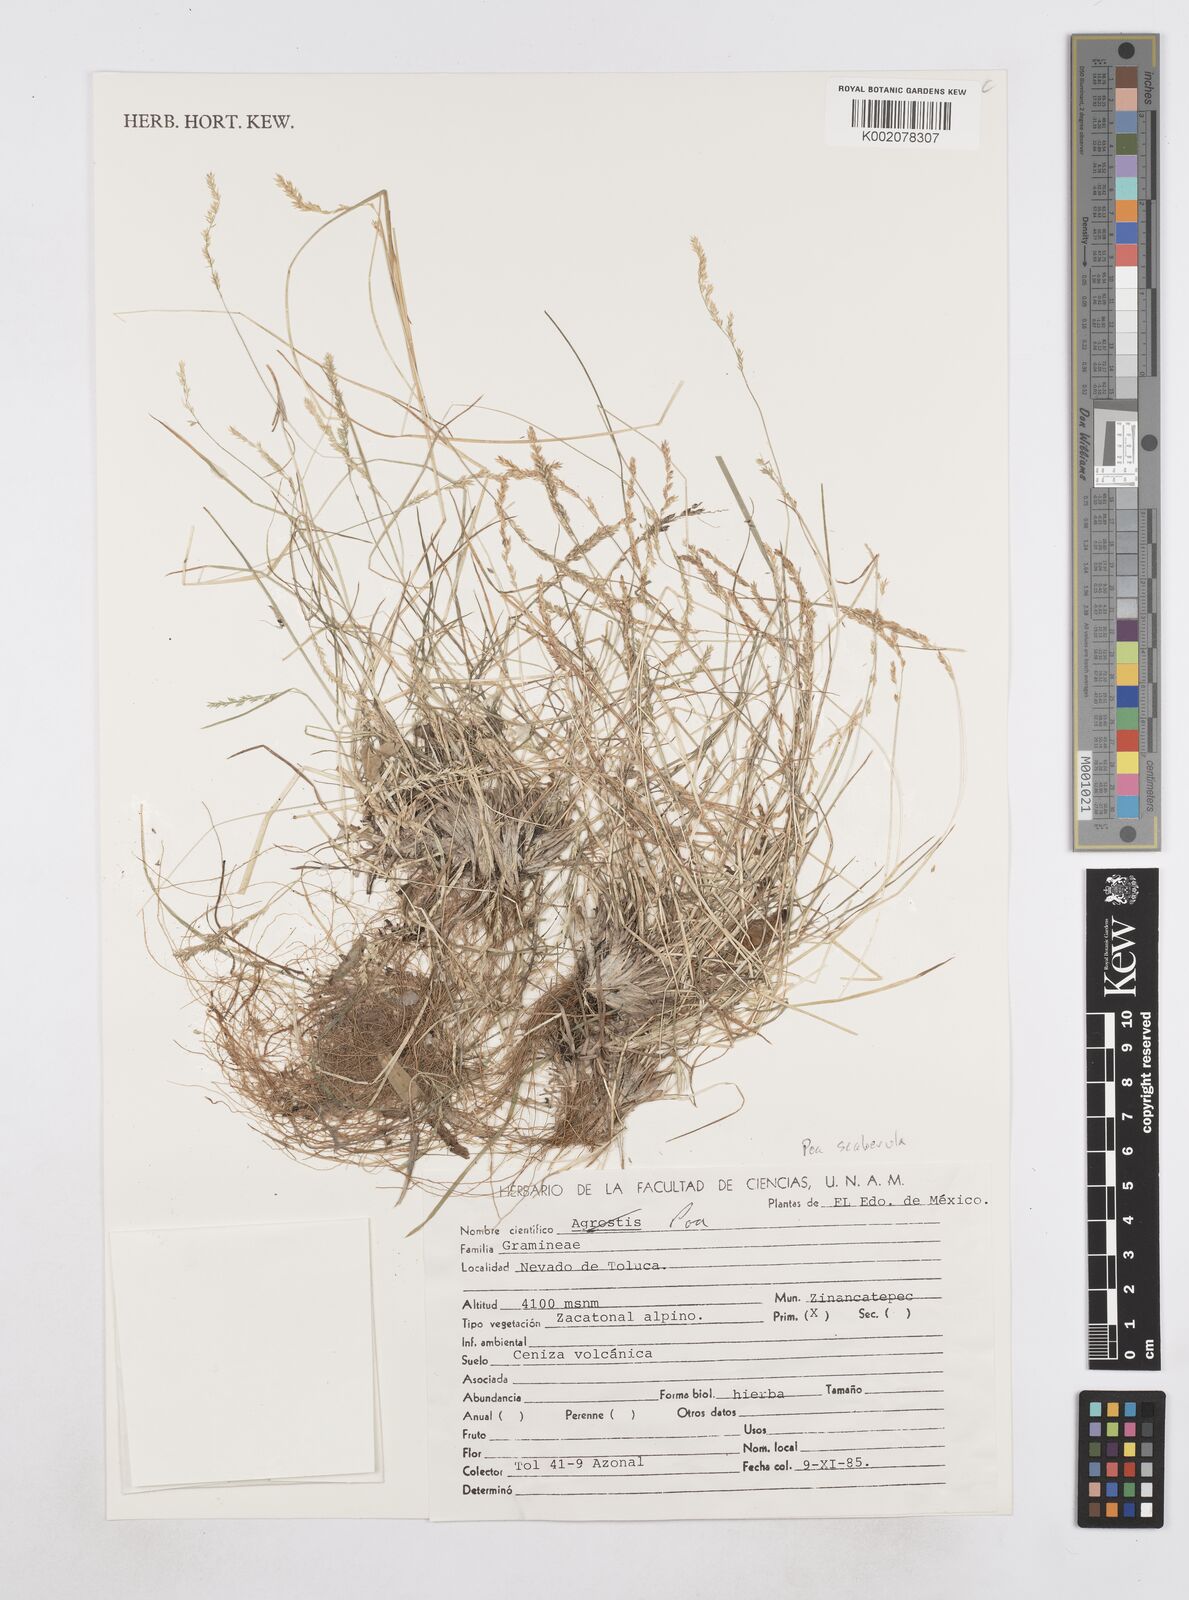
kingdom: Plantae
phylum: Tracheophyta
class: Liliopsida
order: Poales
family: Poaceae
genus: Poa
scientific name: Poa
